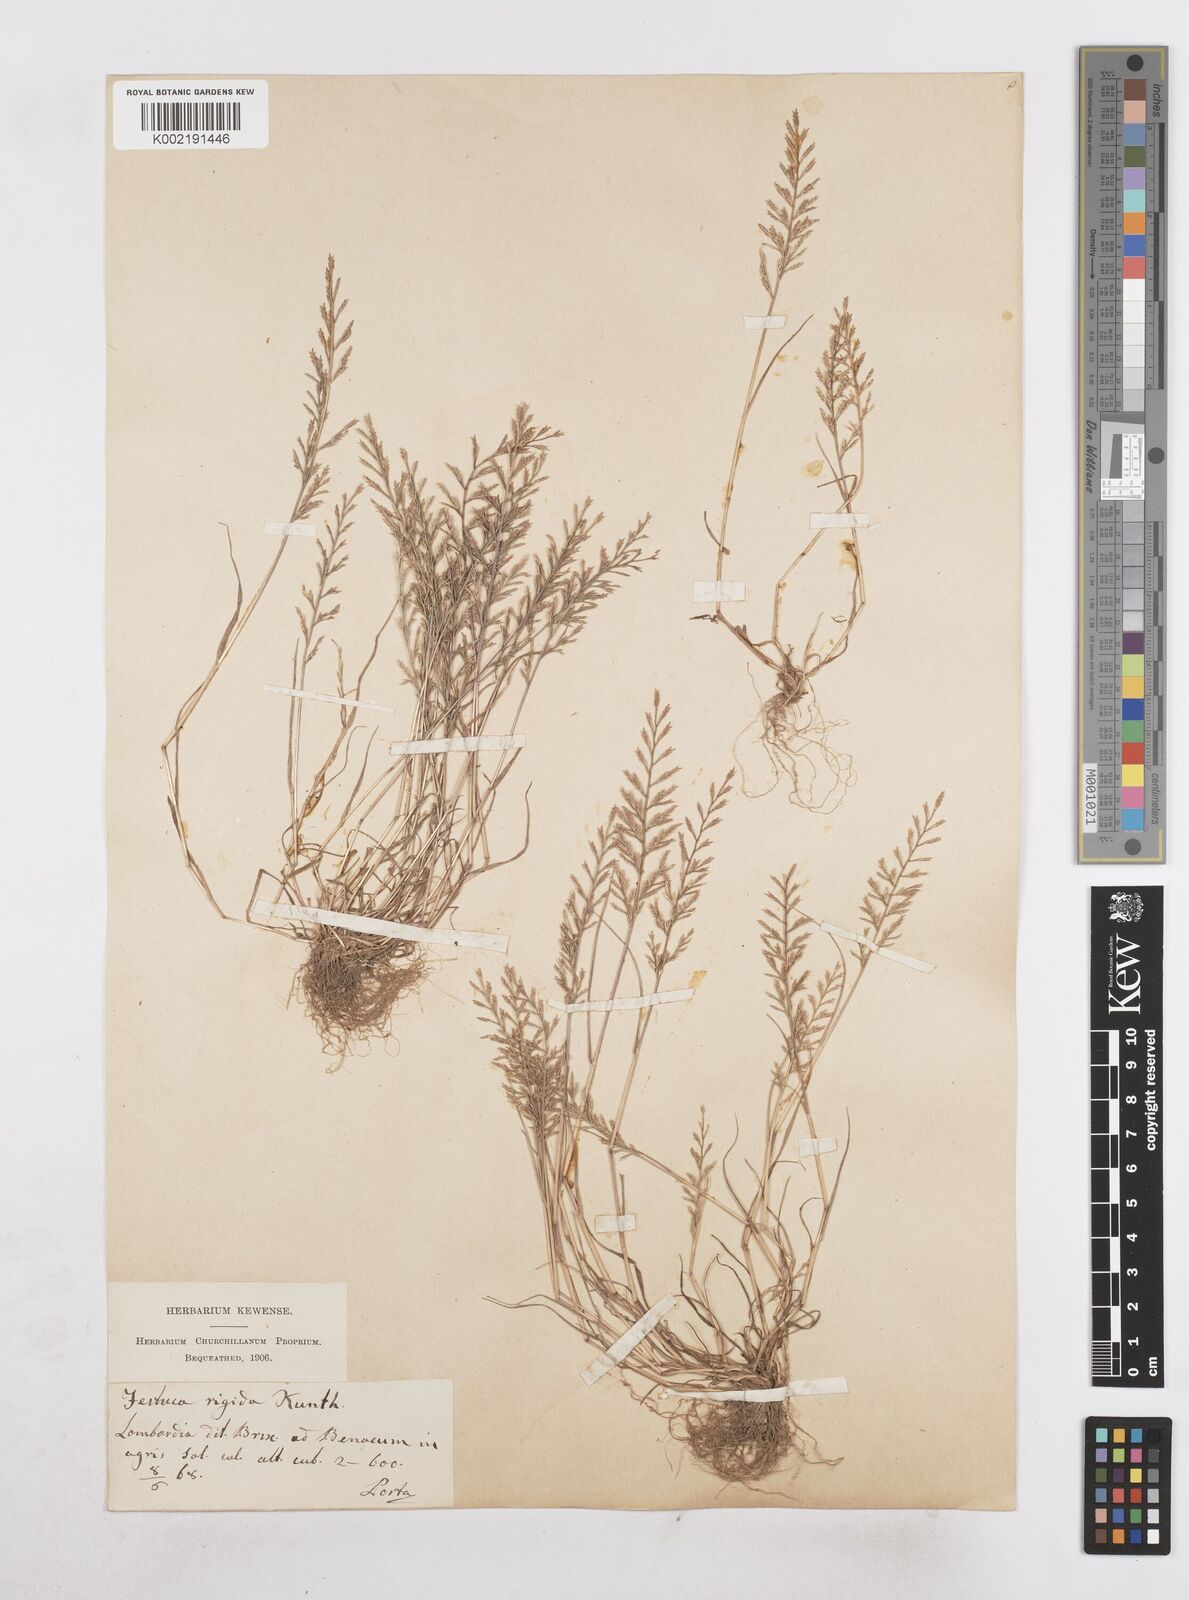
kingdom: Plantae
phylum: Tracheophyta
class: Liliopsida
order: Poales
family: Poaceae
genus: Catapodium
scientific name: Catapodium rigidum
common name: Fern-grass
